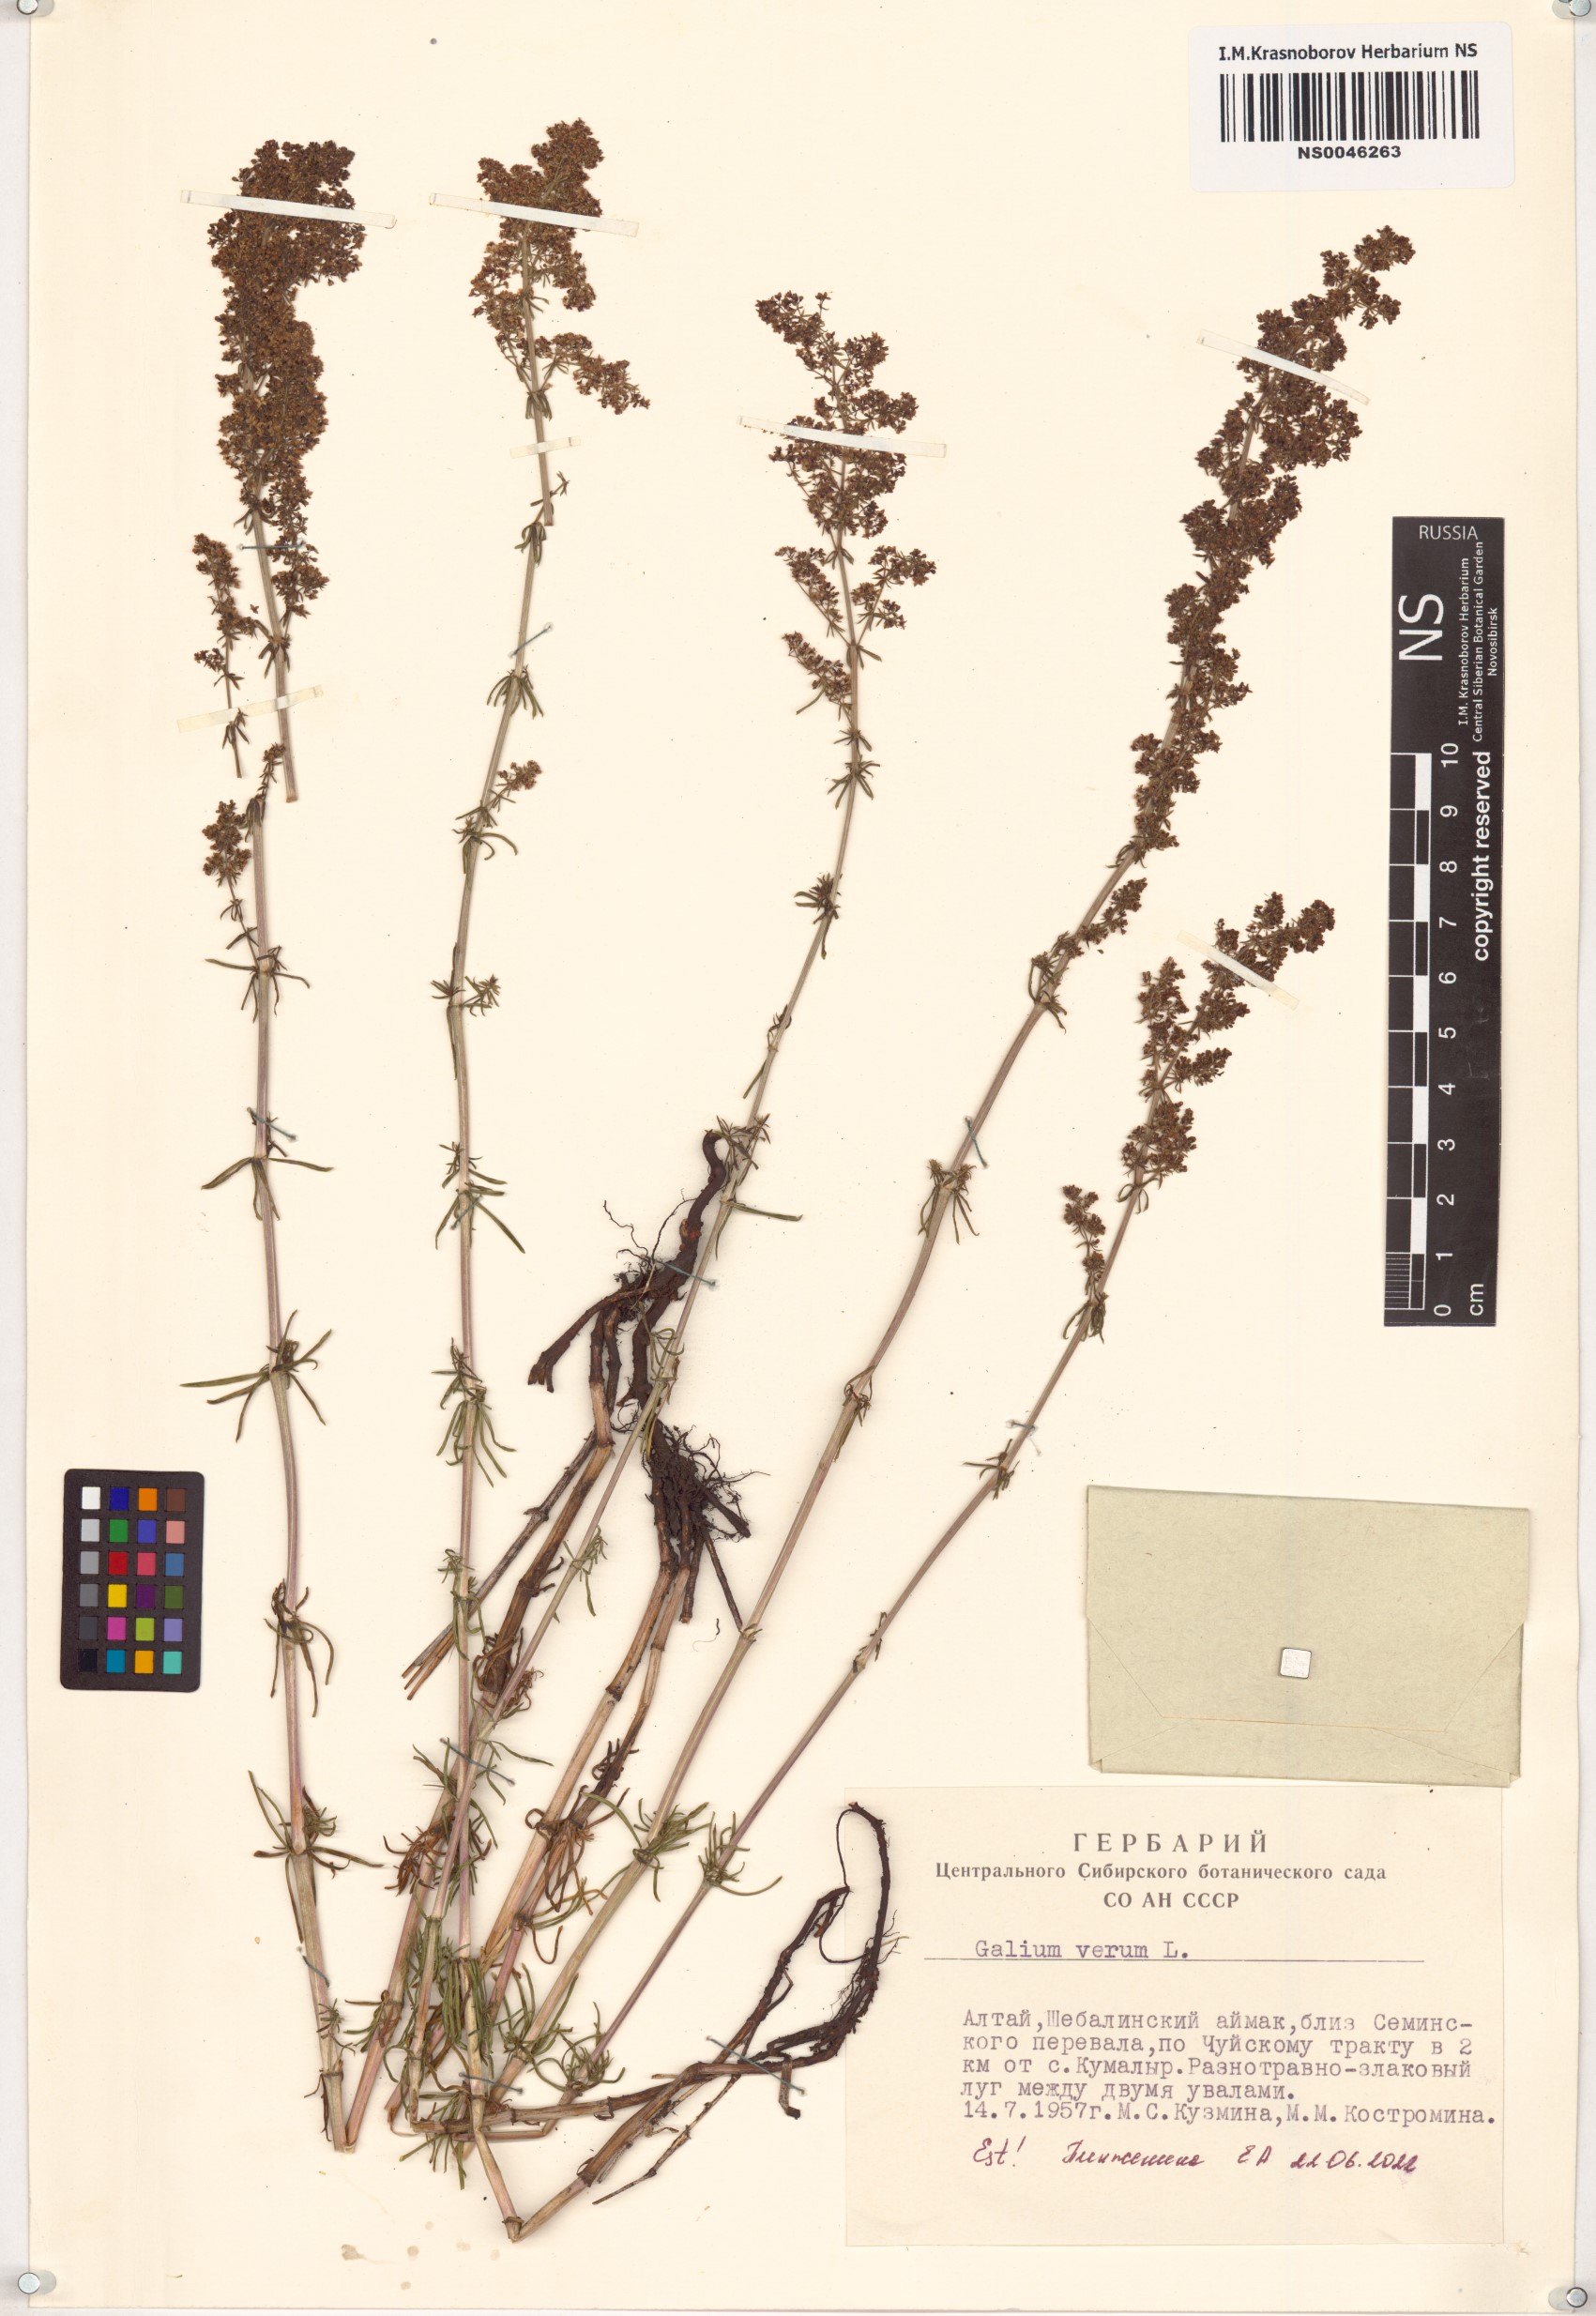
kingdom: Plantae
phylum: Tracheophyta
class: Magnoliopsida
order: Gentianales
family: Rubiaceae
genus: Galium
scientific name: Galium verum
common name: Lady's bedstraw
